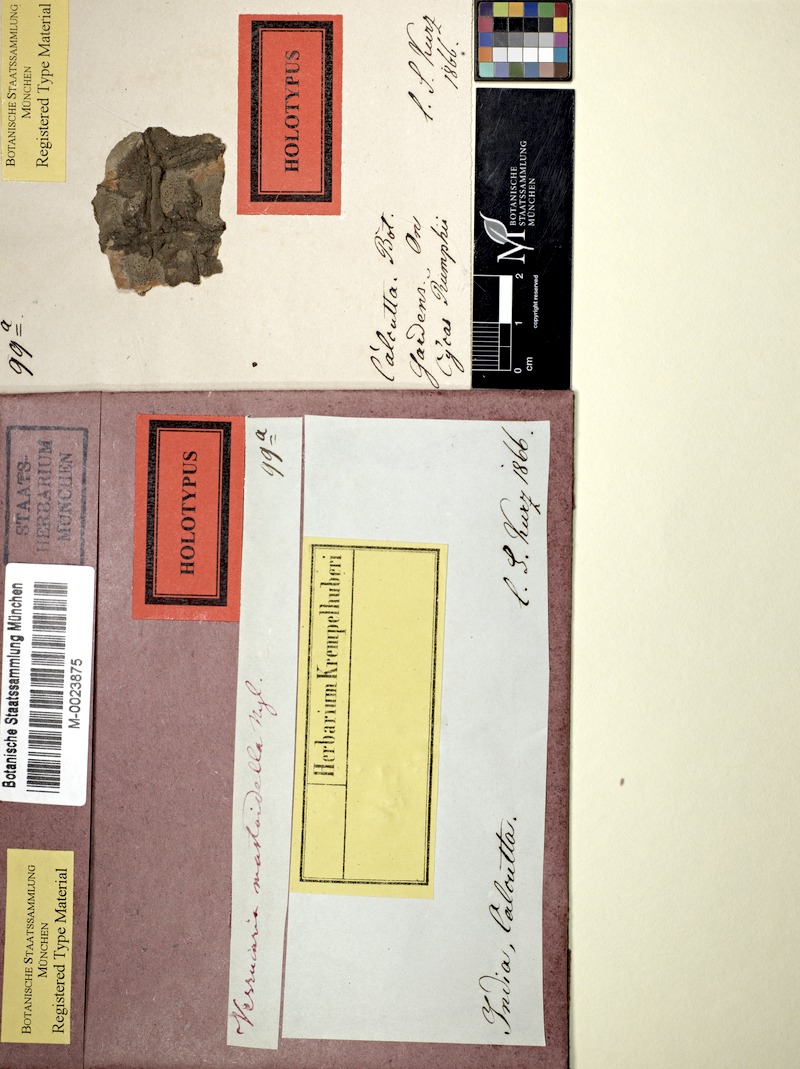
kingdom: Fungi
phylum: Ascomycota
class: Lecanoromycetes
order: Pertusariales
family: Pertusariaceae
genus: Porina
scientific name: Porina mastoidella
